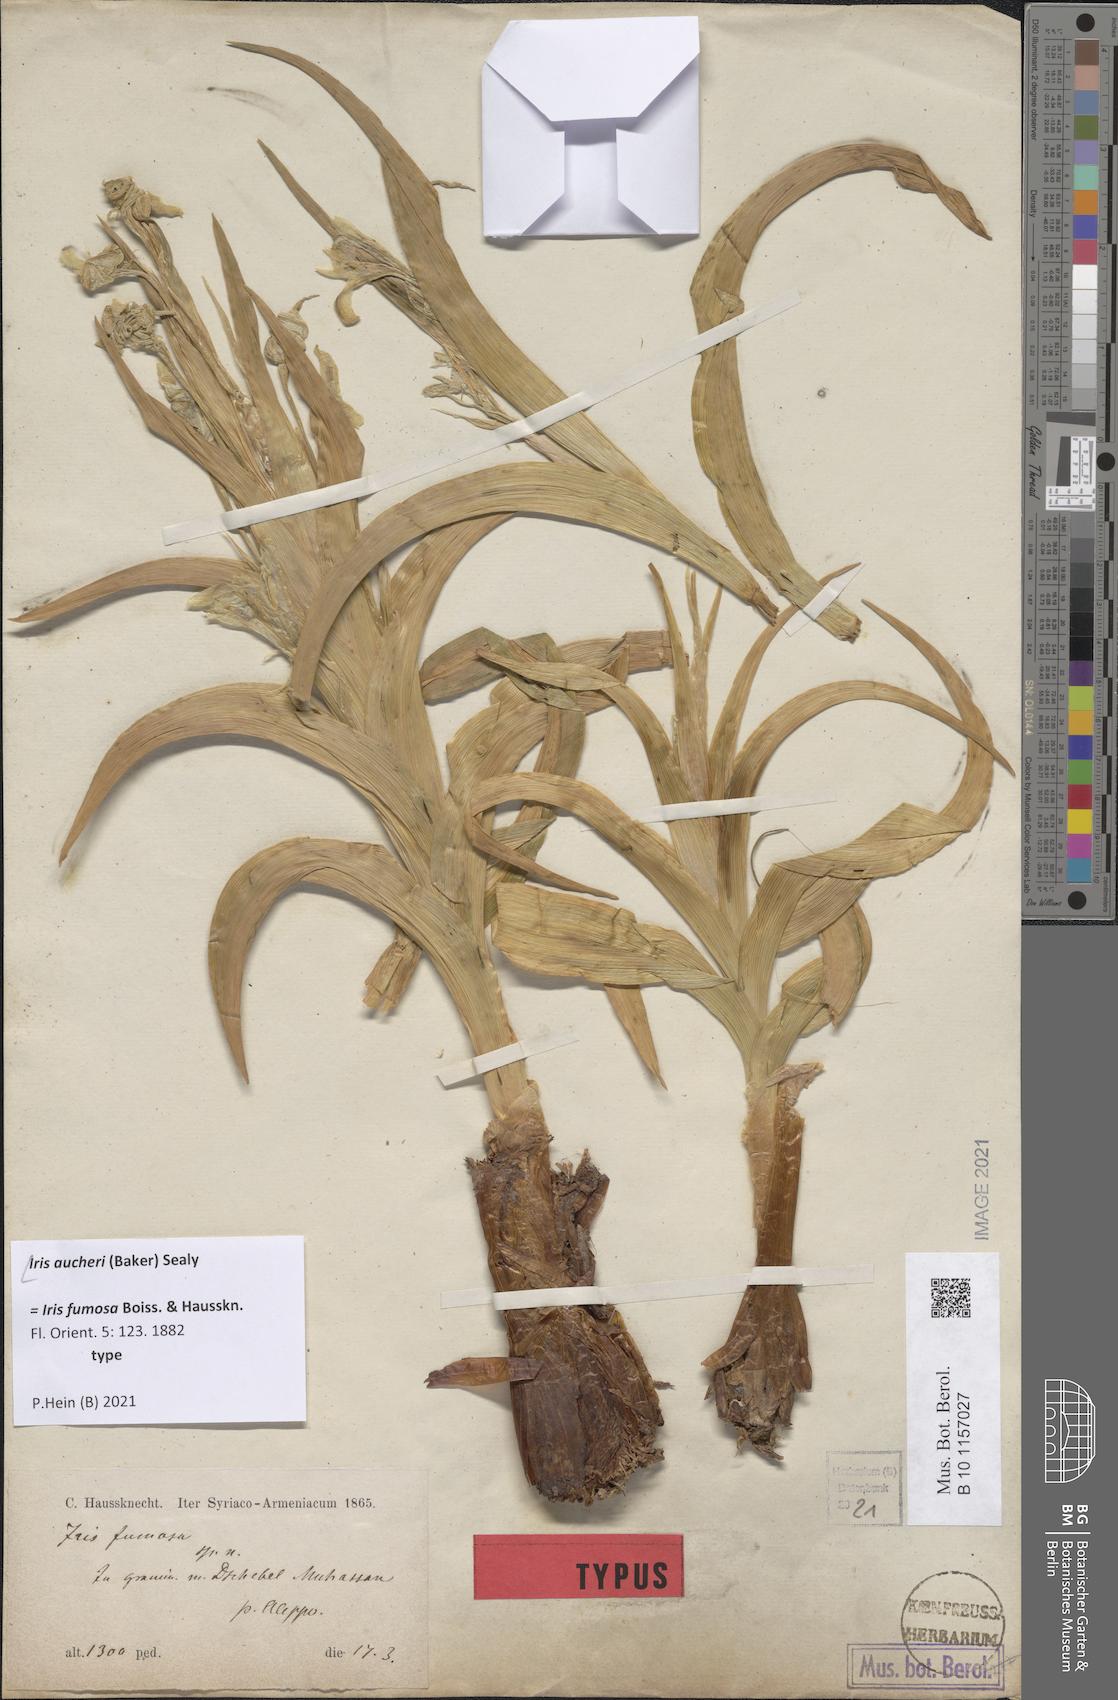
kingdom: Plantae
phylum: Tracheophyta
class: Liliopsida
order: Asparagales
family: Iridaceae
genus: Iris
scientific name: Iris aucheri
